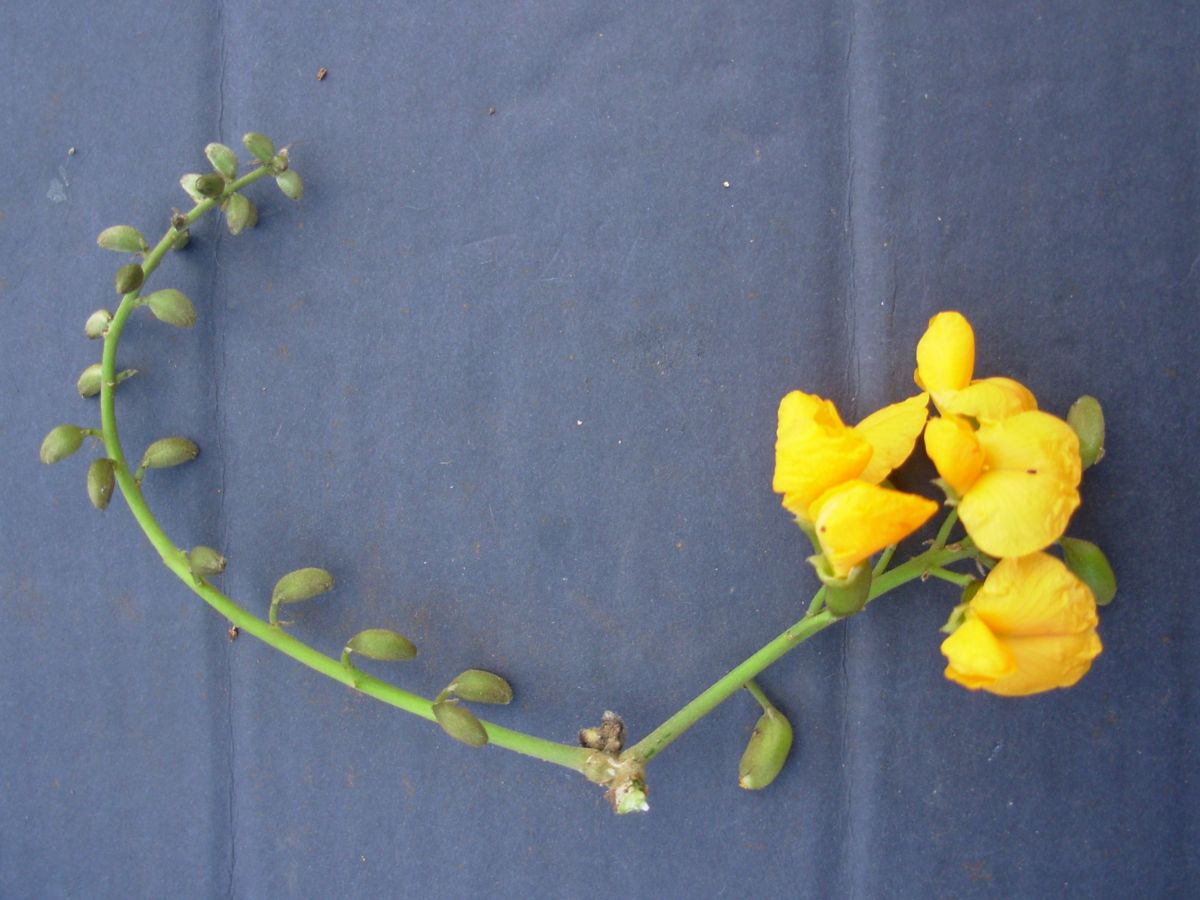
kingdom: Plantae
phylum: Tracheophyta
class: Magnoliopsida
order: Fabales
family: Fabaceae
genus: Pterocarpus
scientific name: Pterocarpus michelianus
